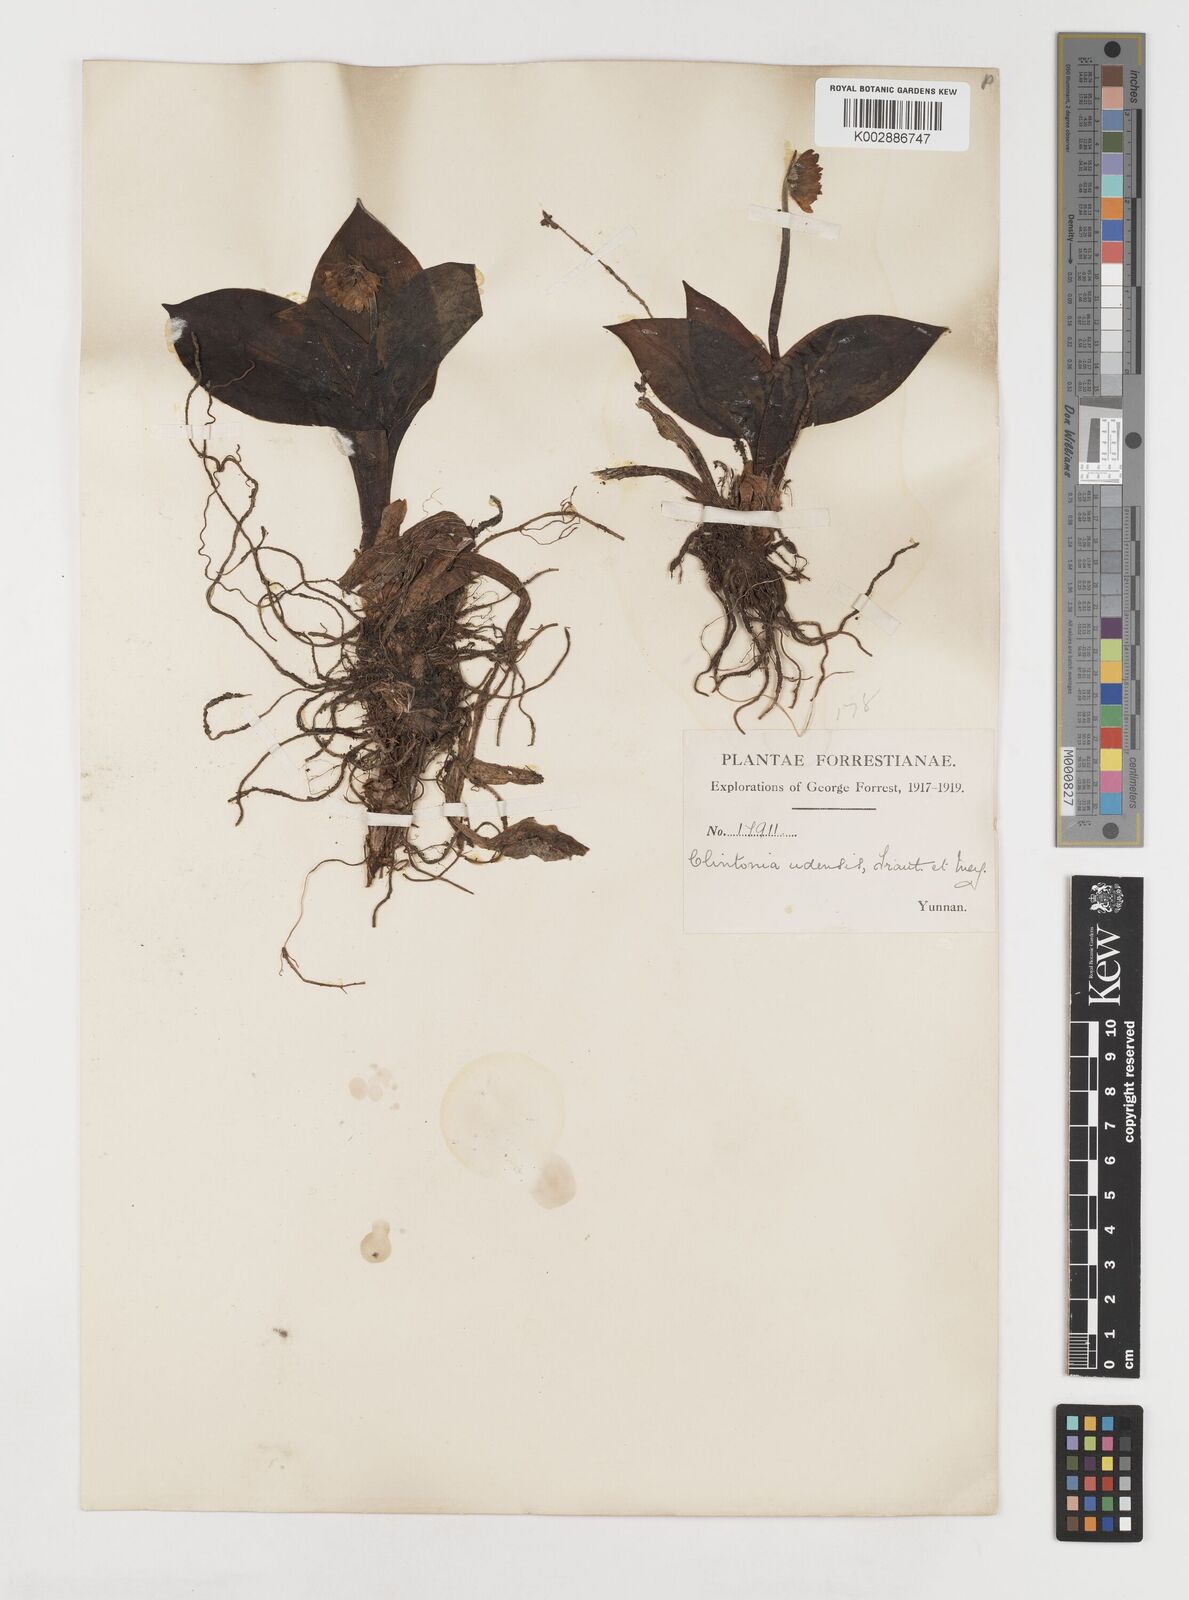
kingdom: Plantae
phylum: Tracheophyta
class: Liliopsida
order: Liliales
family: Liliaceae
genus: Clintonia
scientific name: Clintonia udensis
